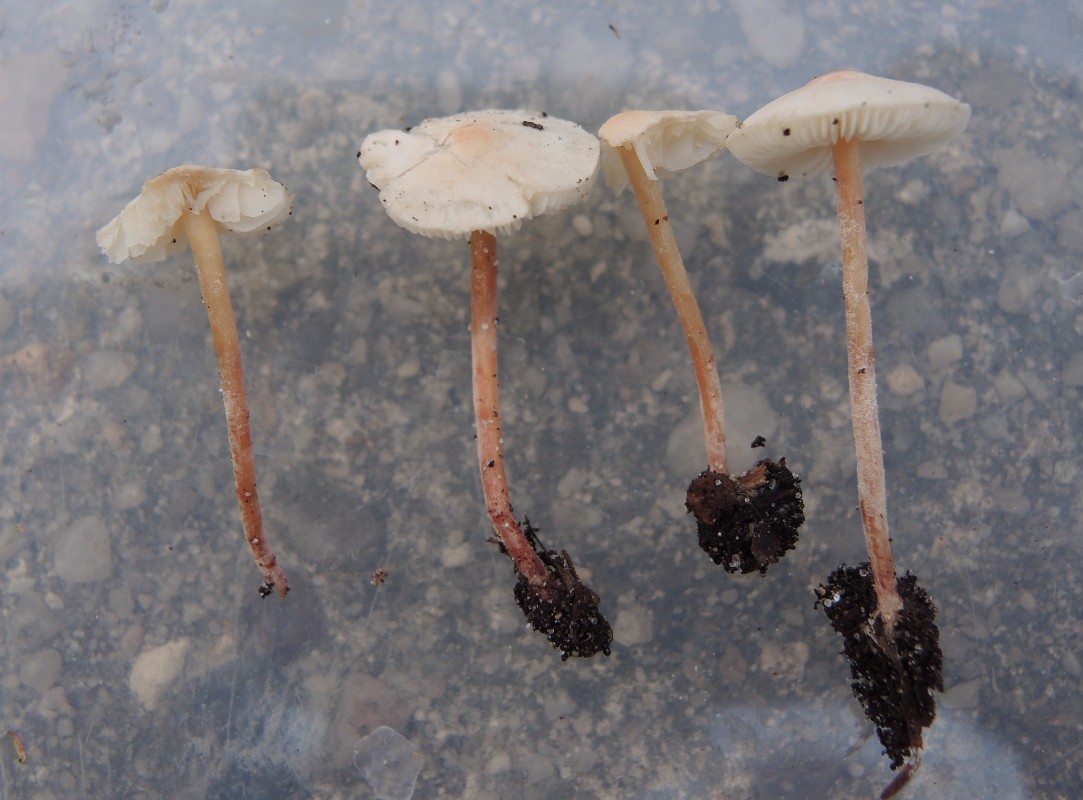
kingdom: Fungi
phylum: Basidiomycota
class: Agaricomycetes
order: Agaricales
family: Agaricaceae
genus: Cystolepiota
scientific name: Cystolepiota seminuda
